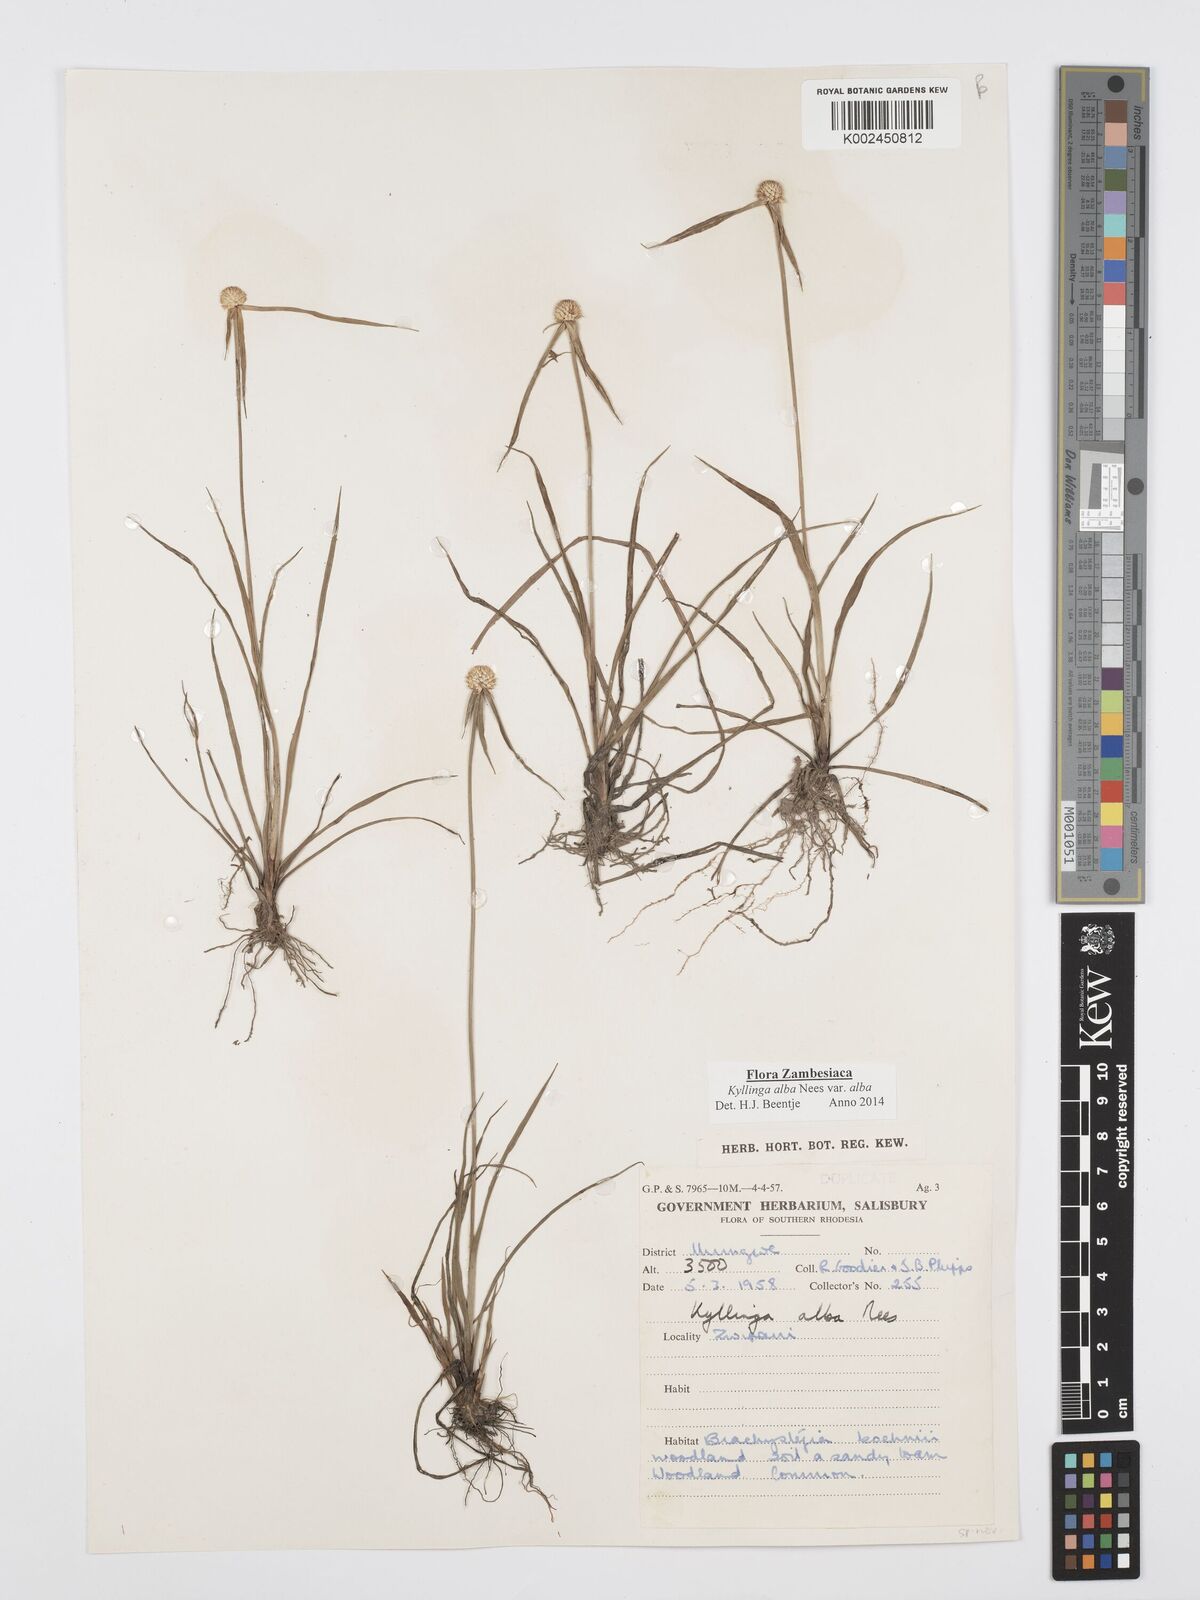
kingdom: Plantae
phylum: Tracheophyta
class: Liliopsida
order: Poales
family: Cyperaceae
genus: Cyperus
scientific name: Cyperus
